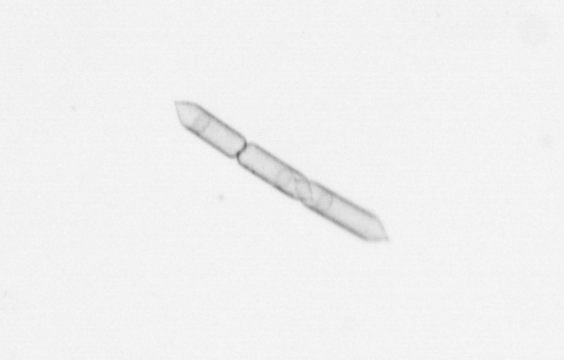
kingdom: Chromista
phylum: Ochrophyta
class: Bacillariophyceae
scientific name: Bacillariophyceae
